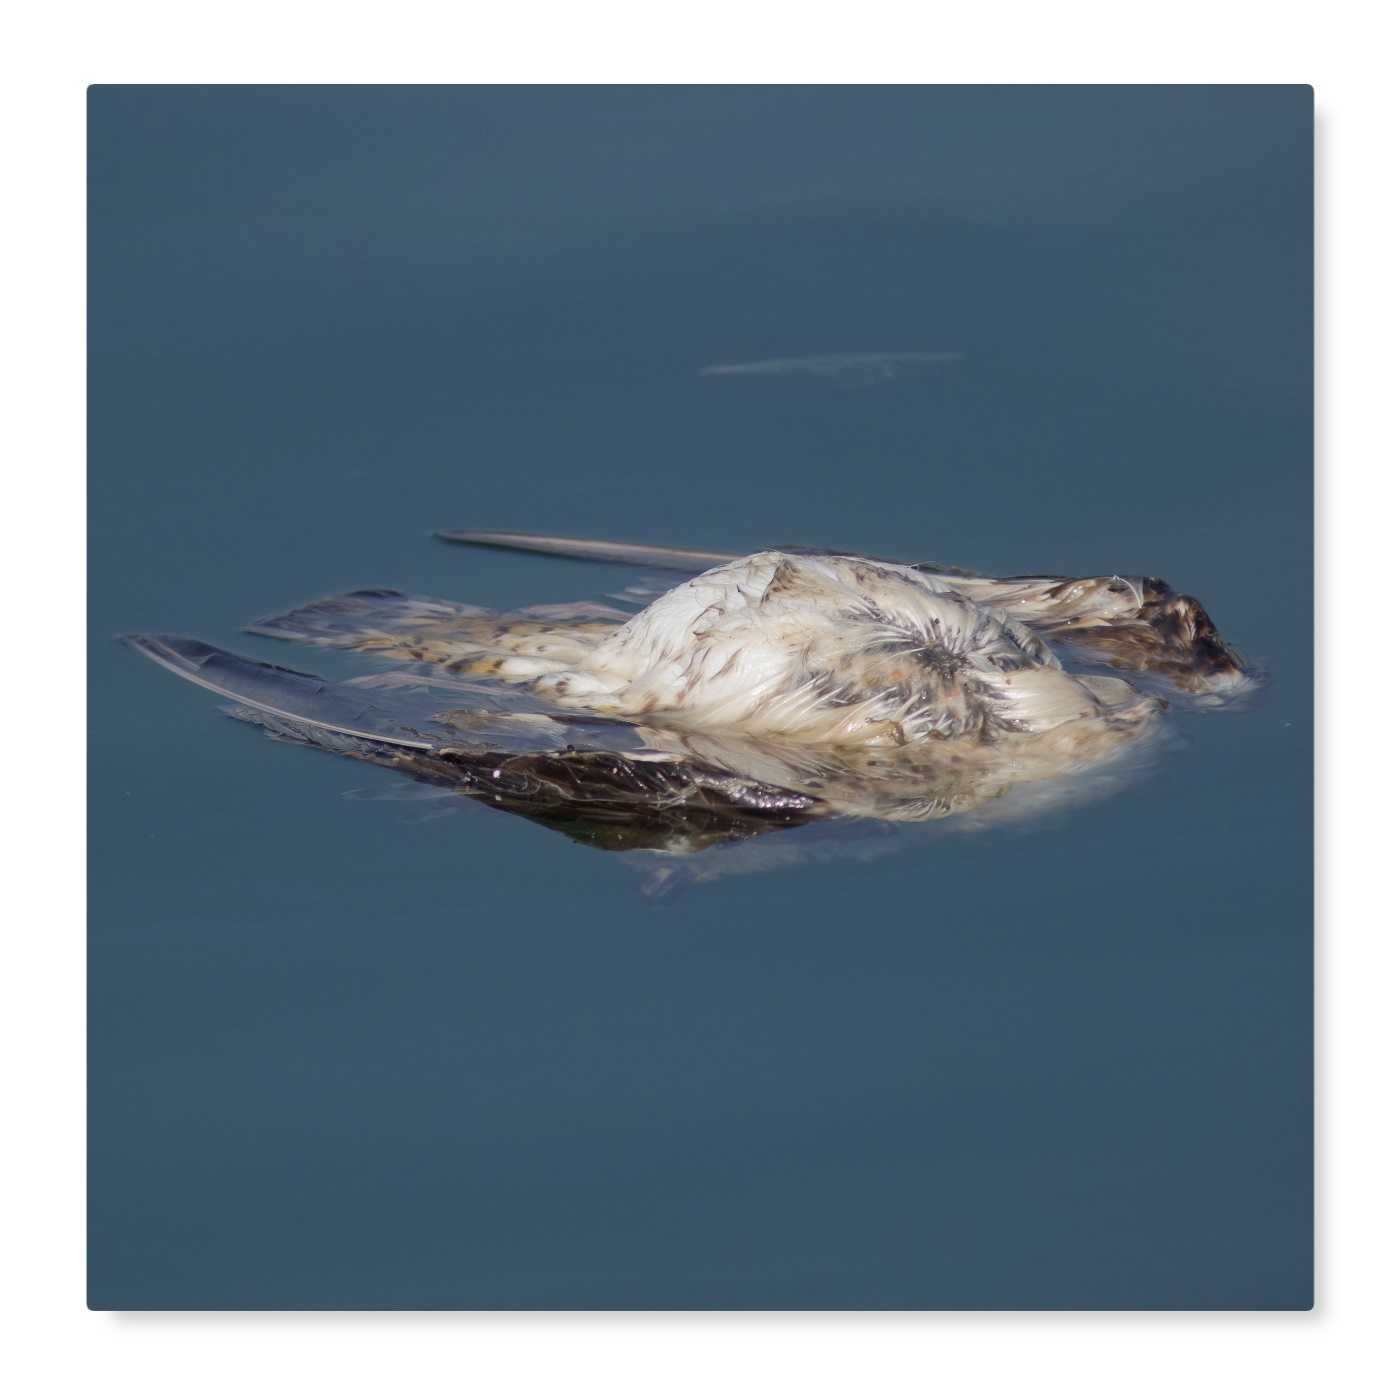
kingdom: Animalia
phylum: Chordata
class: Aves
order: Charadriiformes
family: Laridae
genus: Larus
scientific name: Larus fuscus
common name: NA
